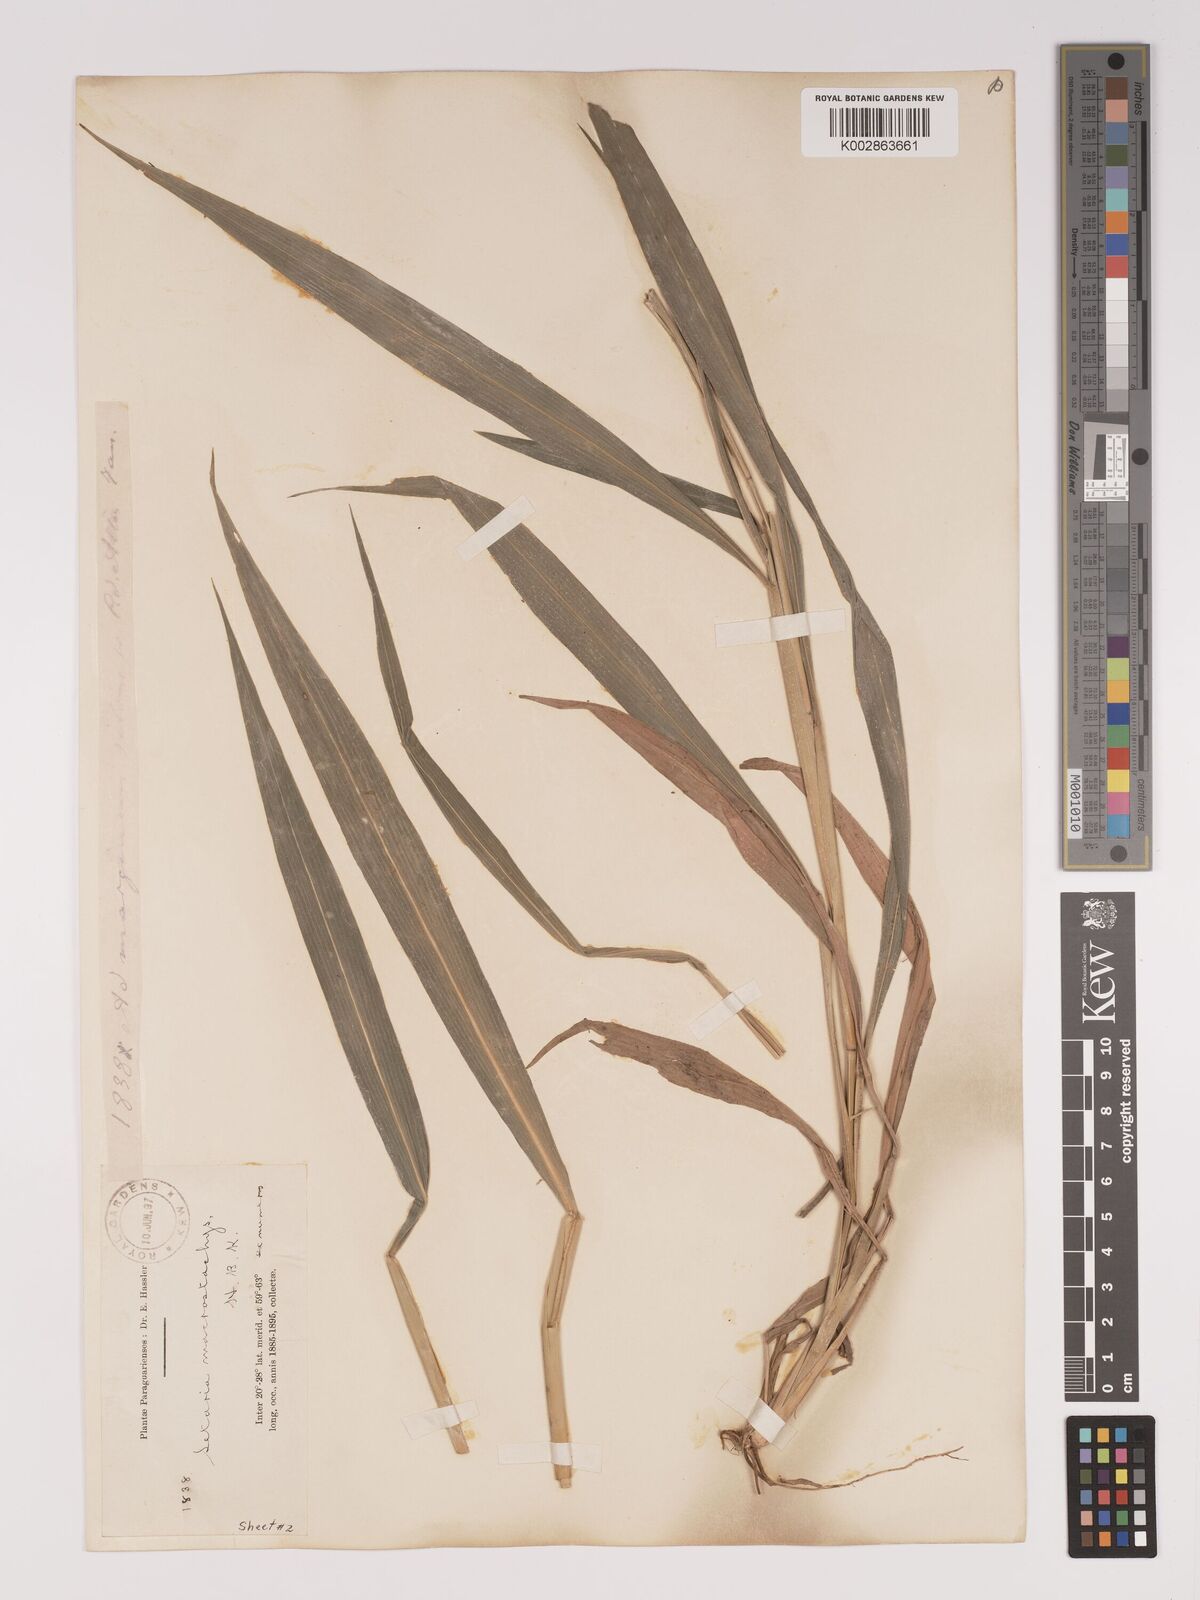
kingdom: Plantae
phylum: Tracheophyta
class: Liliopsida
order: Poales
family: Poaceae
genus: Setaria
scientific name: Setaria vulpiseta
